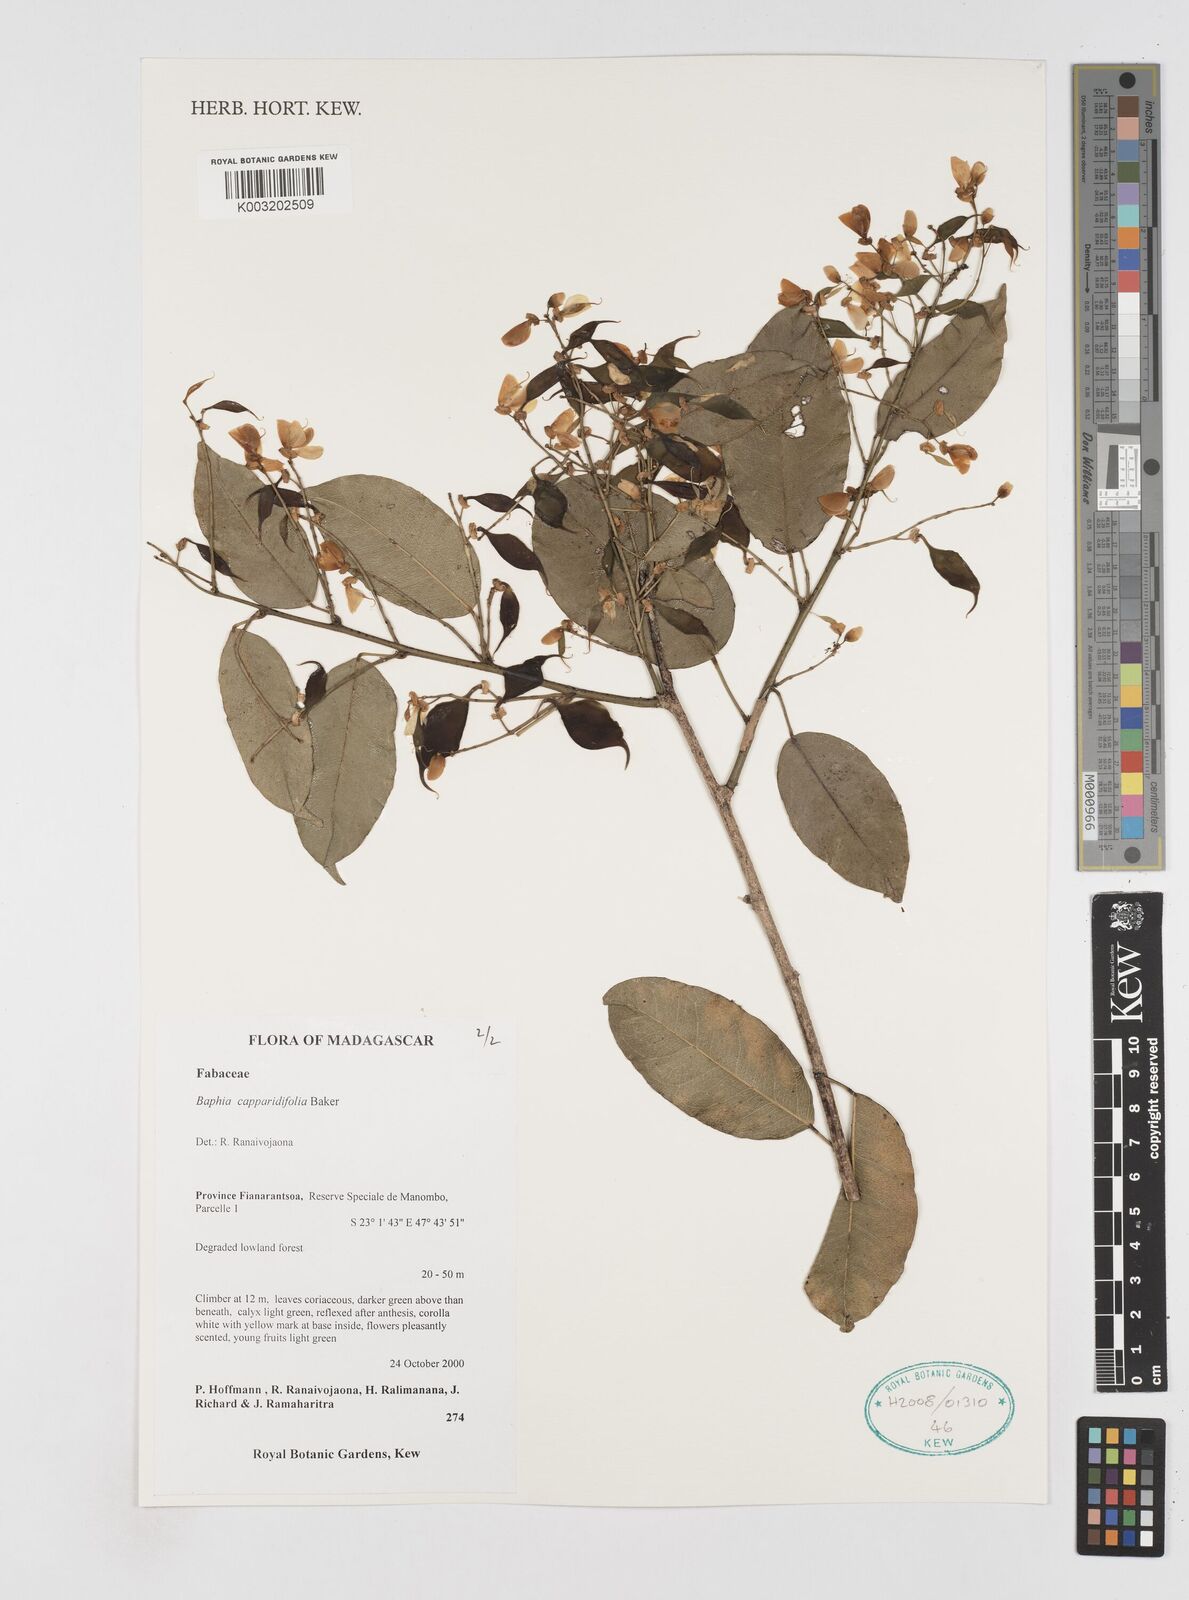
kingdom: Plantae
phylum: Tracheophyta
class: Magnoliopsida
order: Fabales
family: Fabaceae
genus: Baphia
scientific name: Baphia capparidifolia
